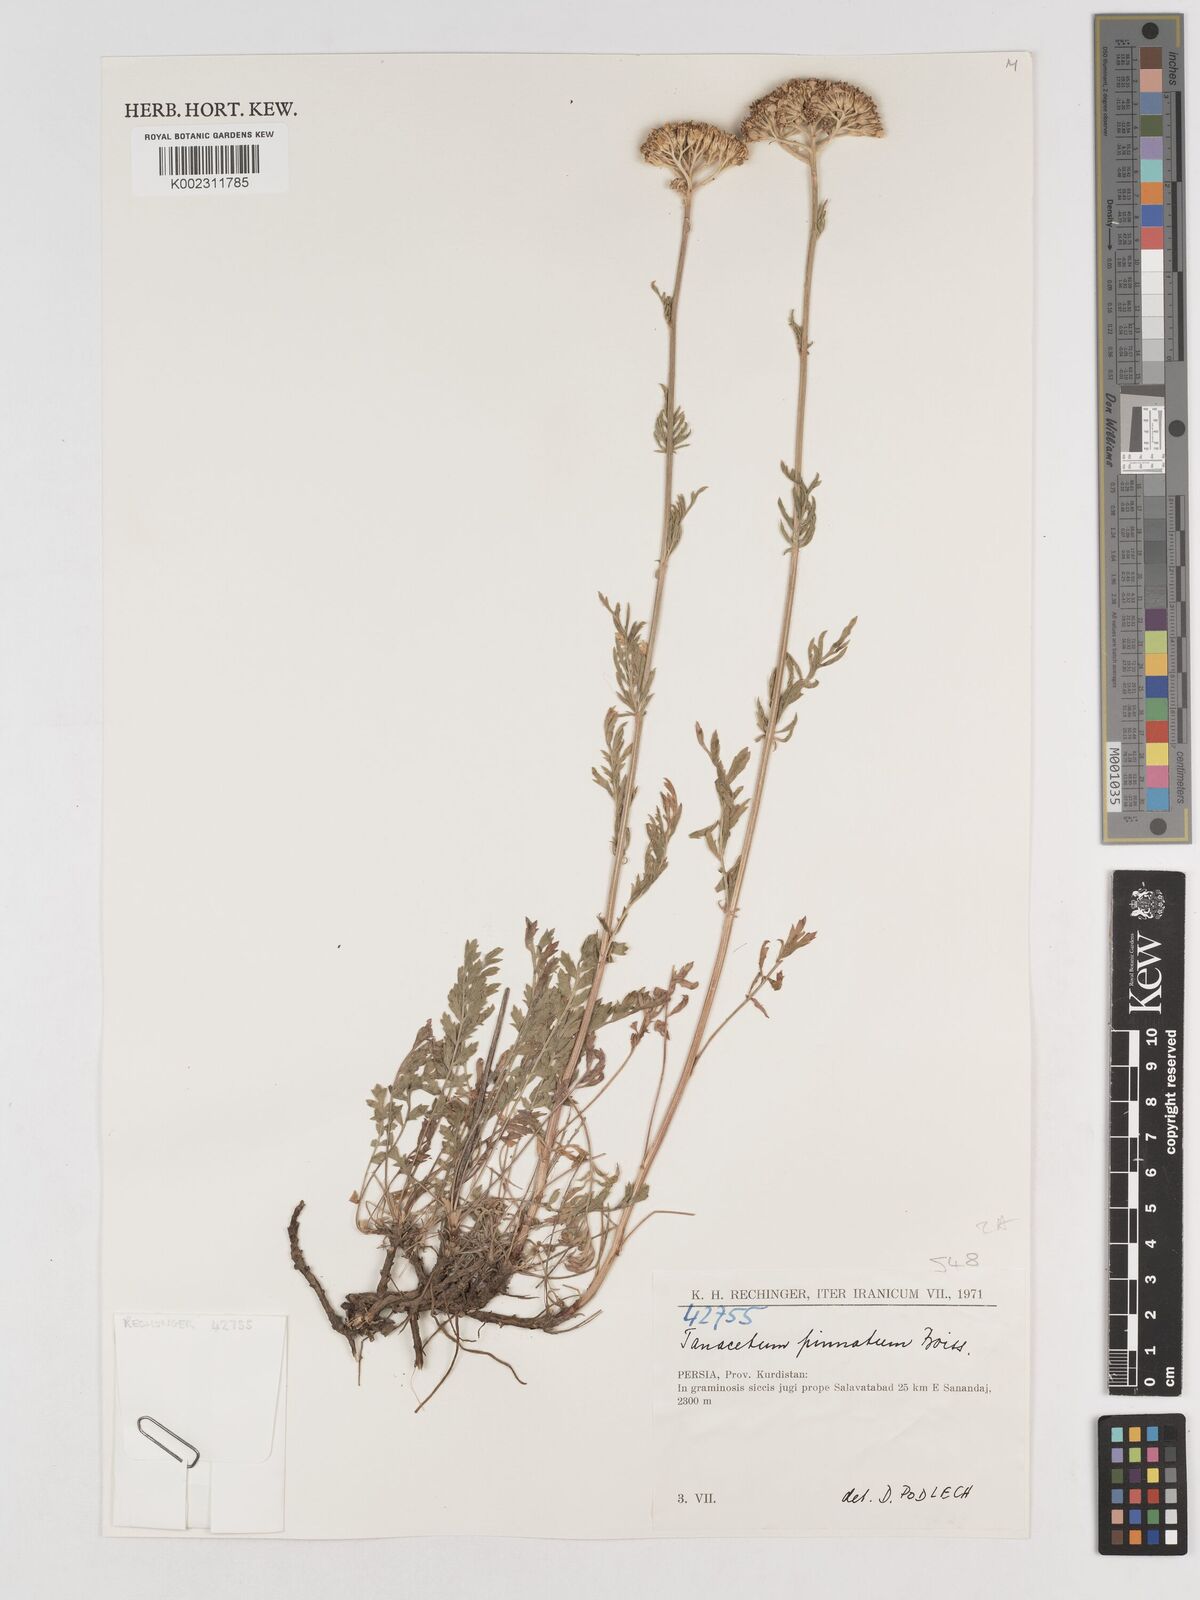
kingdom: Plantae
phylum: Tracheophyta
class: Magnoliopsida
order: Asterales
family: Asteraceae
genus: Tanacetum
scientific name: Tanacetum pinnatum
